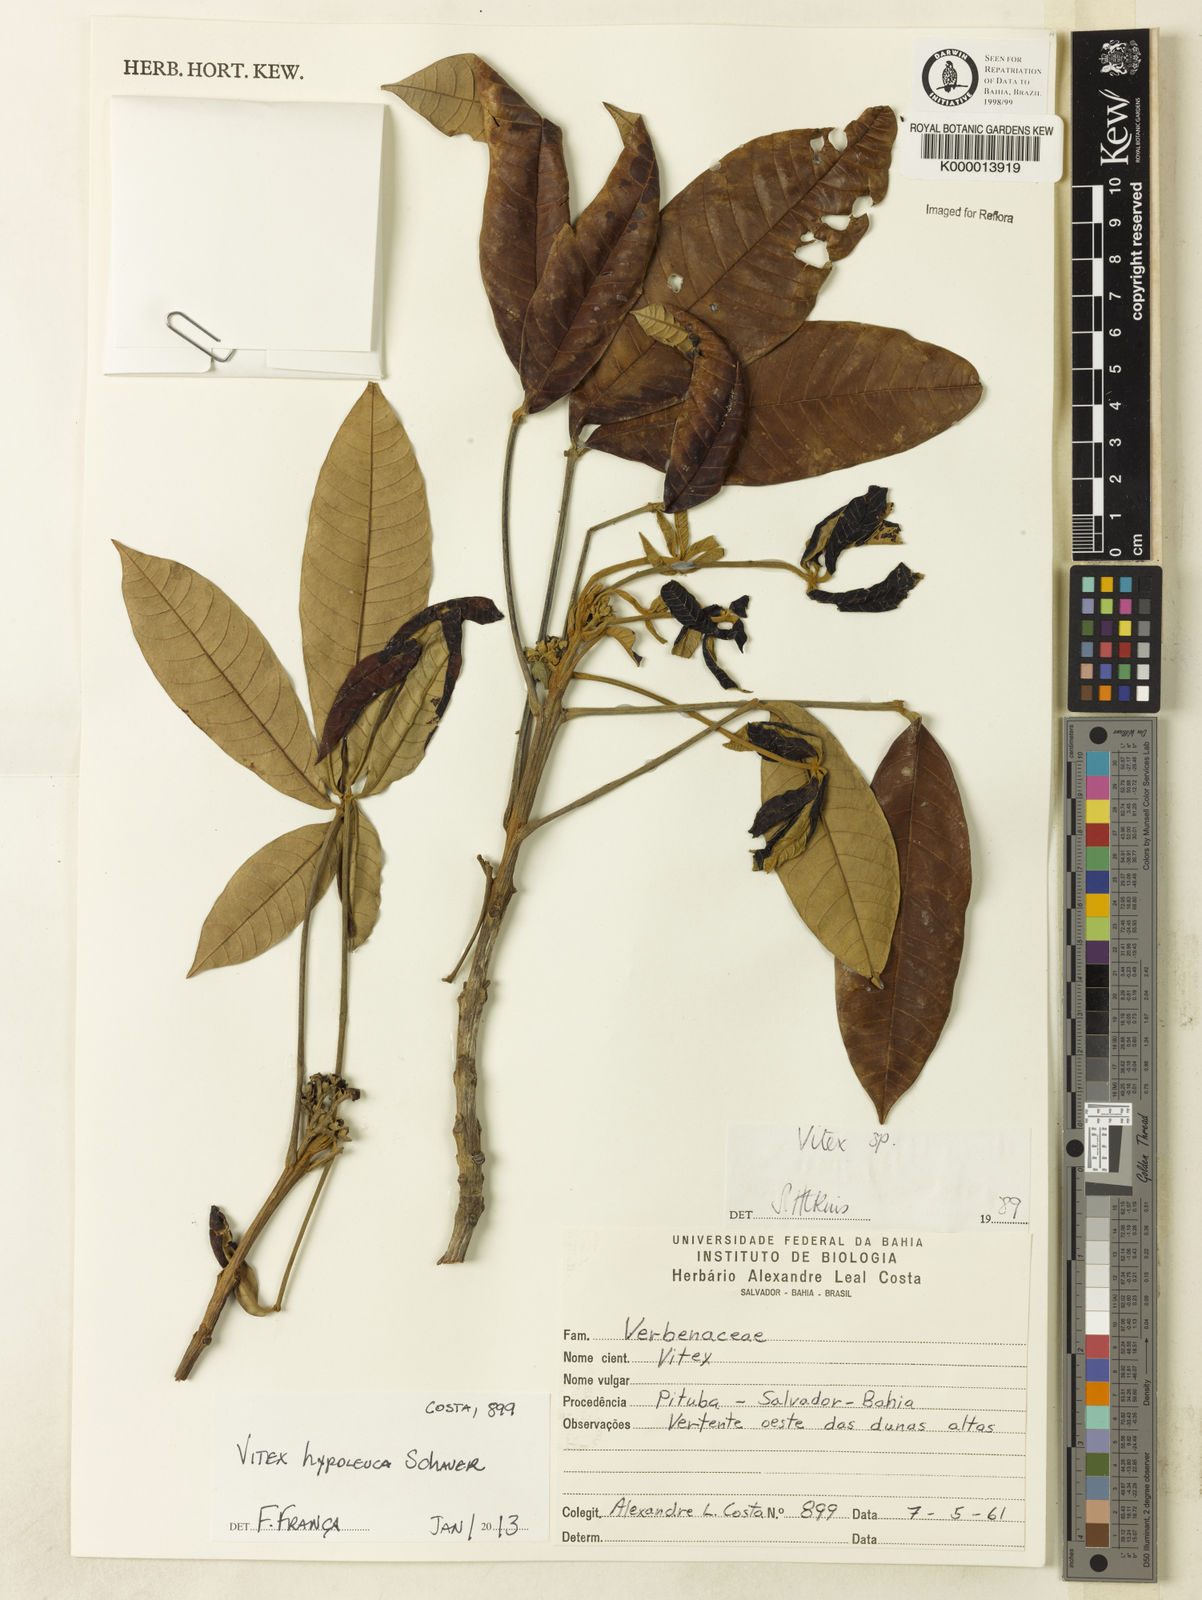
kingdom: Plantae
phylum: Tracheophyta
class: Magnoliopsida
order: Lamiales
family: Lamiaceae
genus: Vitex
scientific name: Vitex hypoleuca
